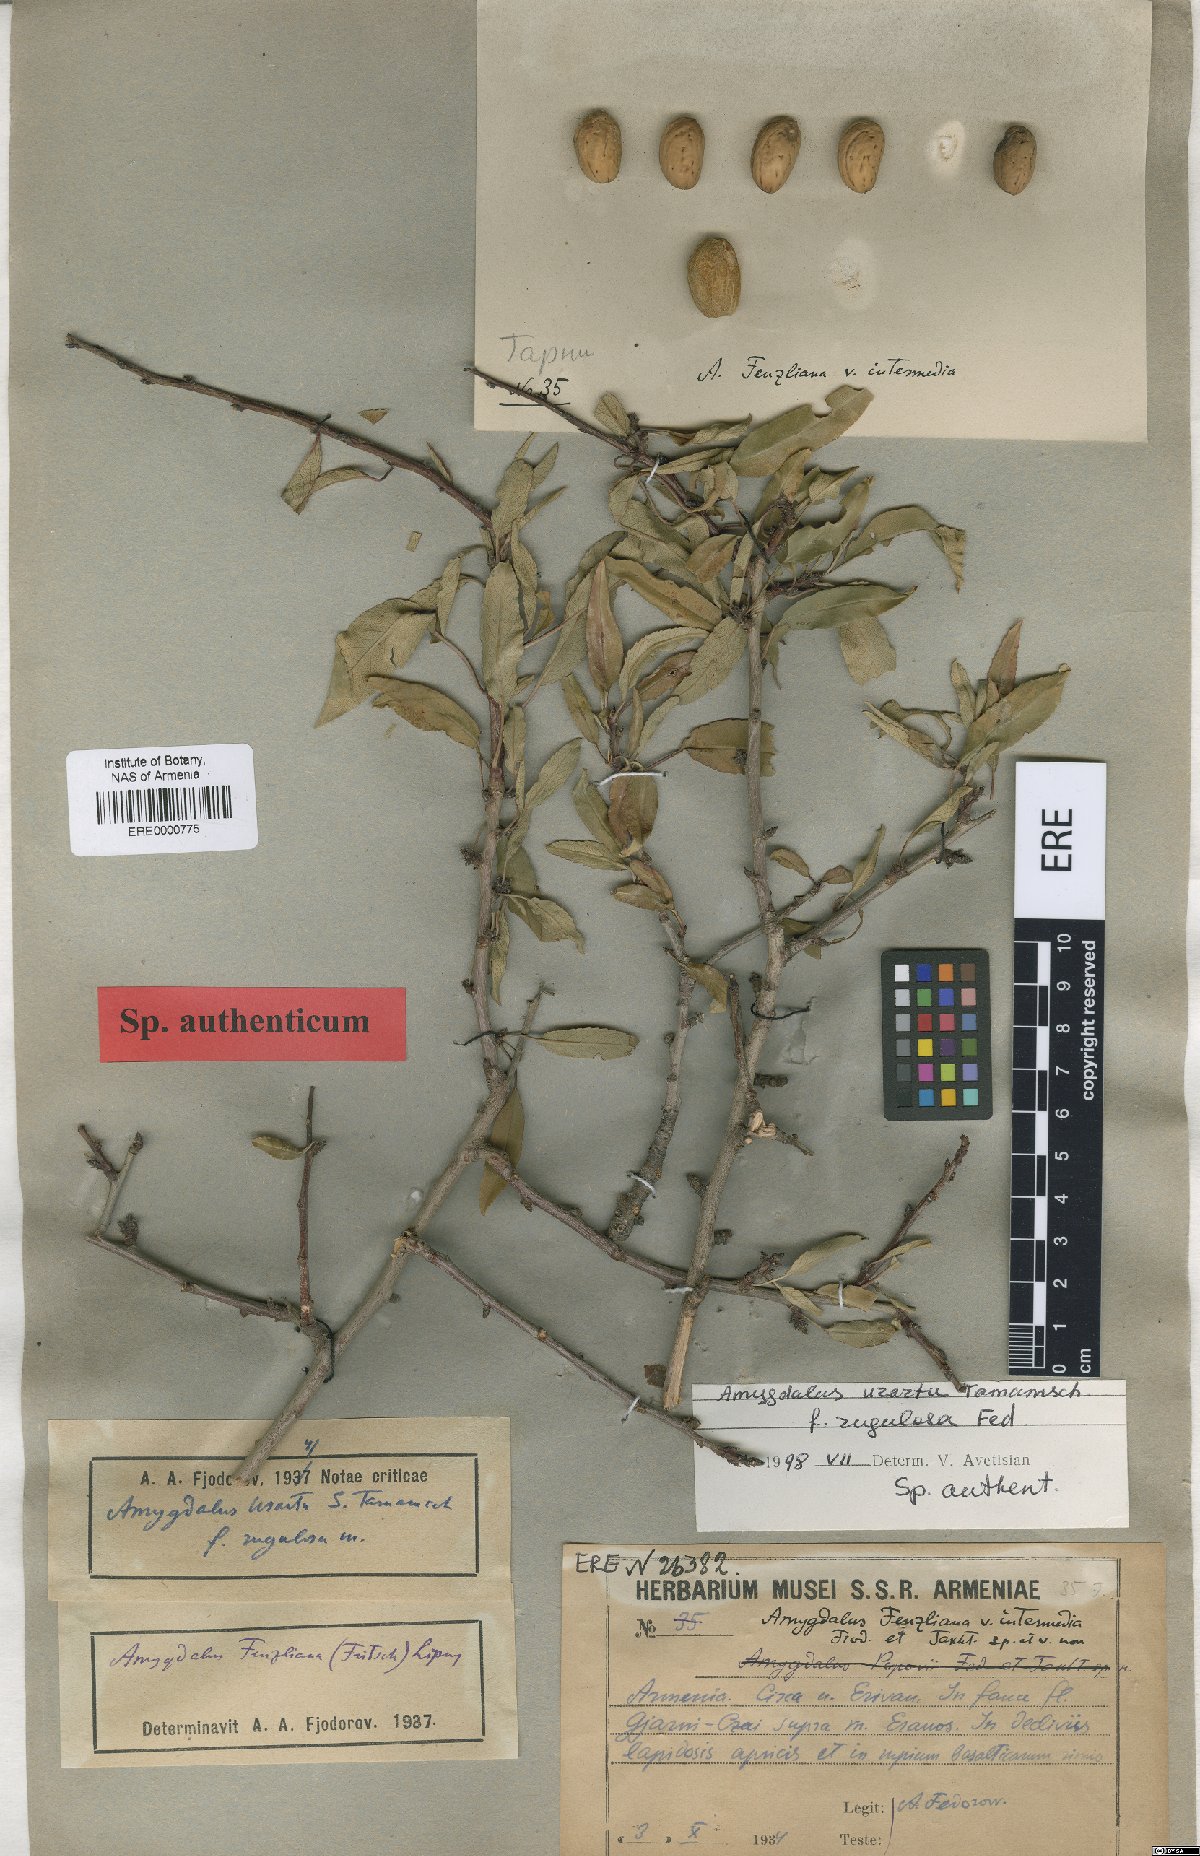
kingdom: Plantae
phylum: Tracheophyta
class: Magnoliopsida
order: Rosales
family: Rosaceae
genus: Prunus
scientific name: Prunus urartu
